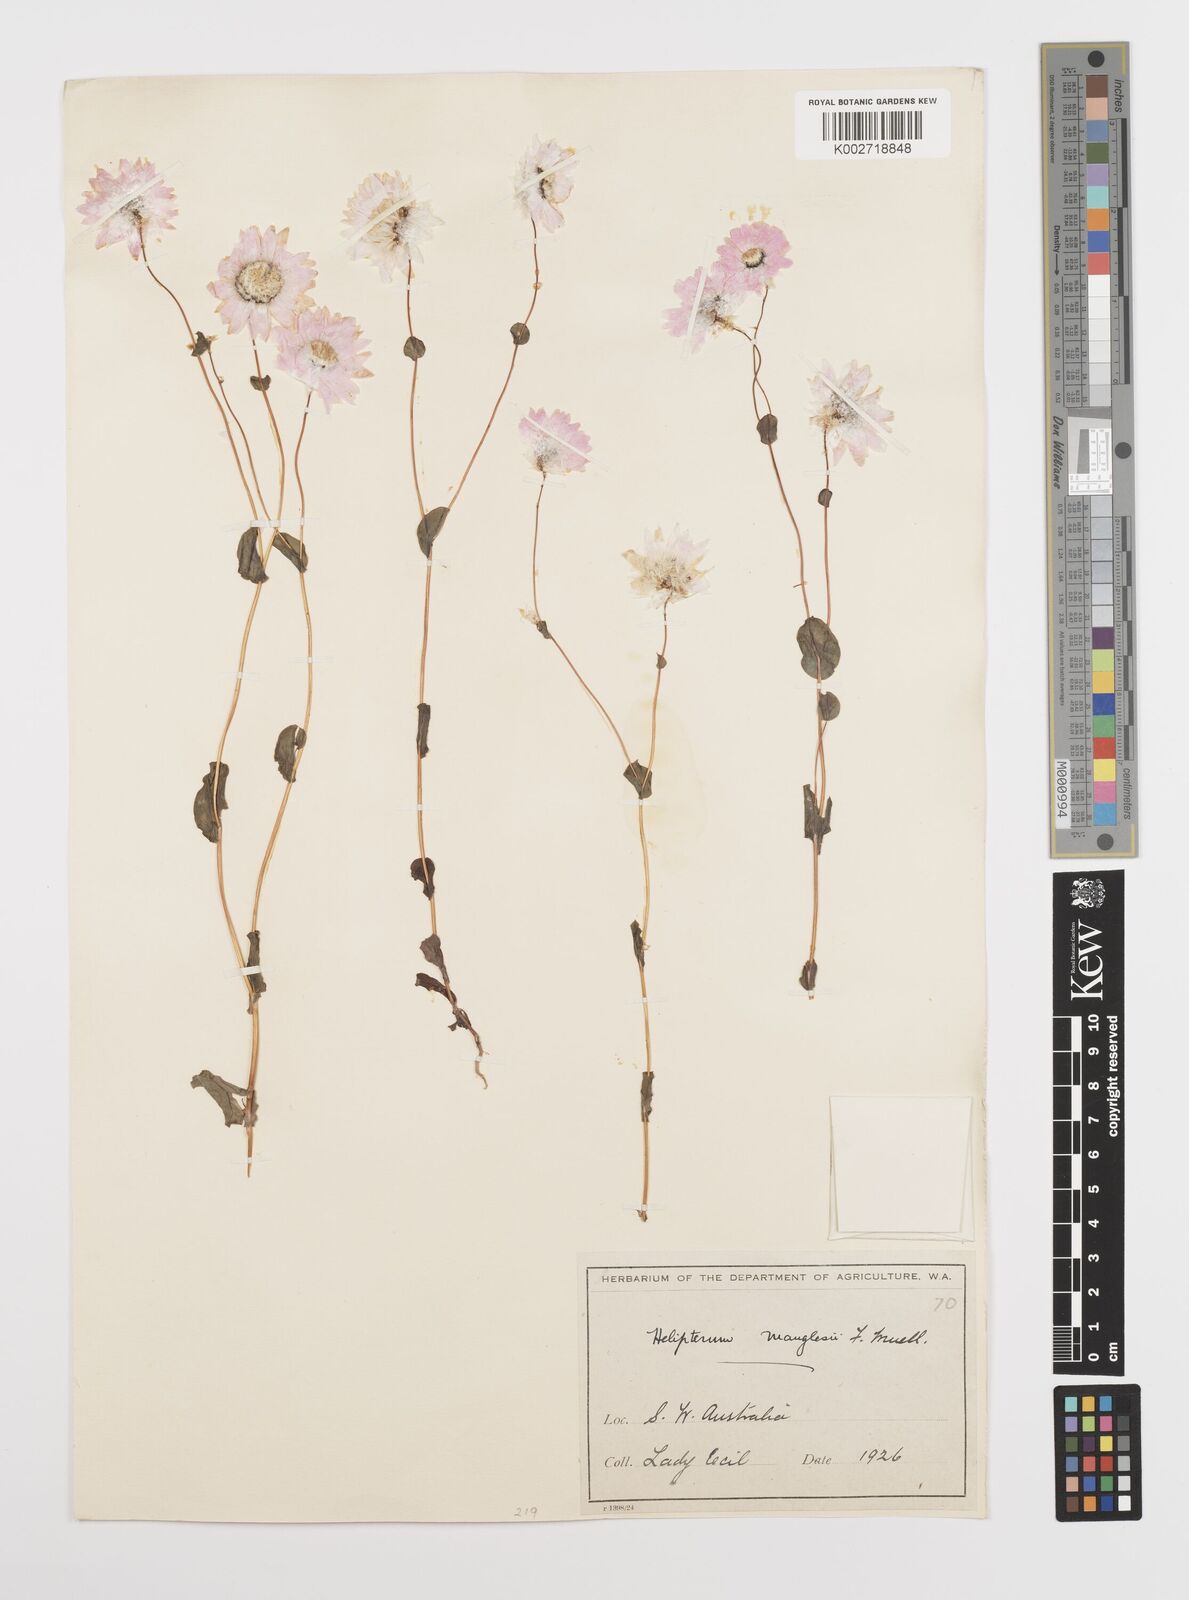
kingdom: Plantae
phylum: Tracheophyta
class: Magnoliopsida
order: Asterales
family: Asteraceae
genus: Rhodanthe
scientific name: Rhodanthe manglesii
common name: Pink sunray
